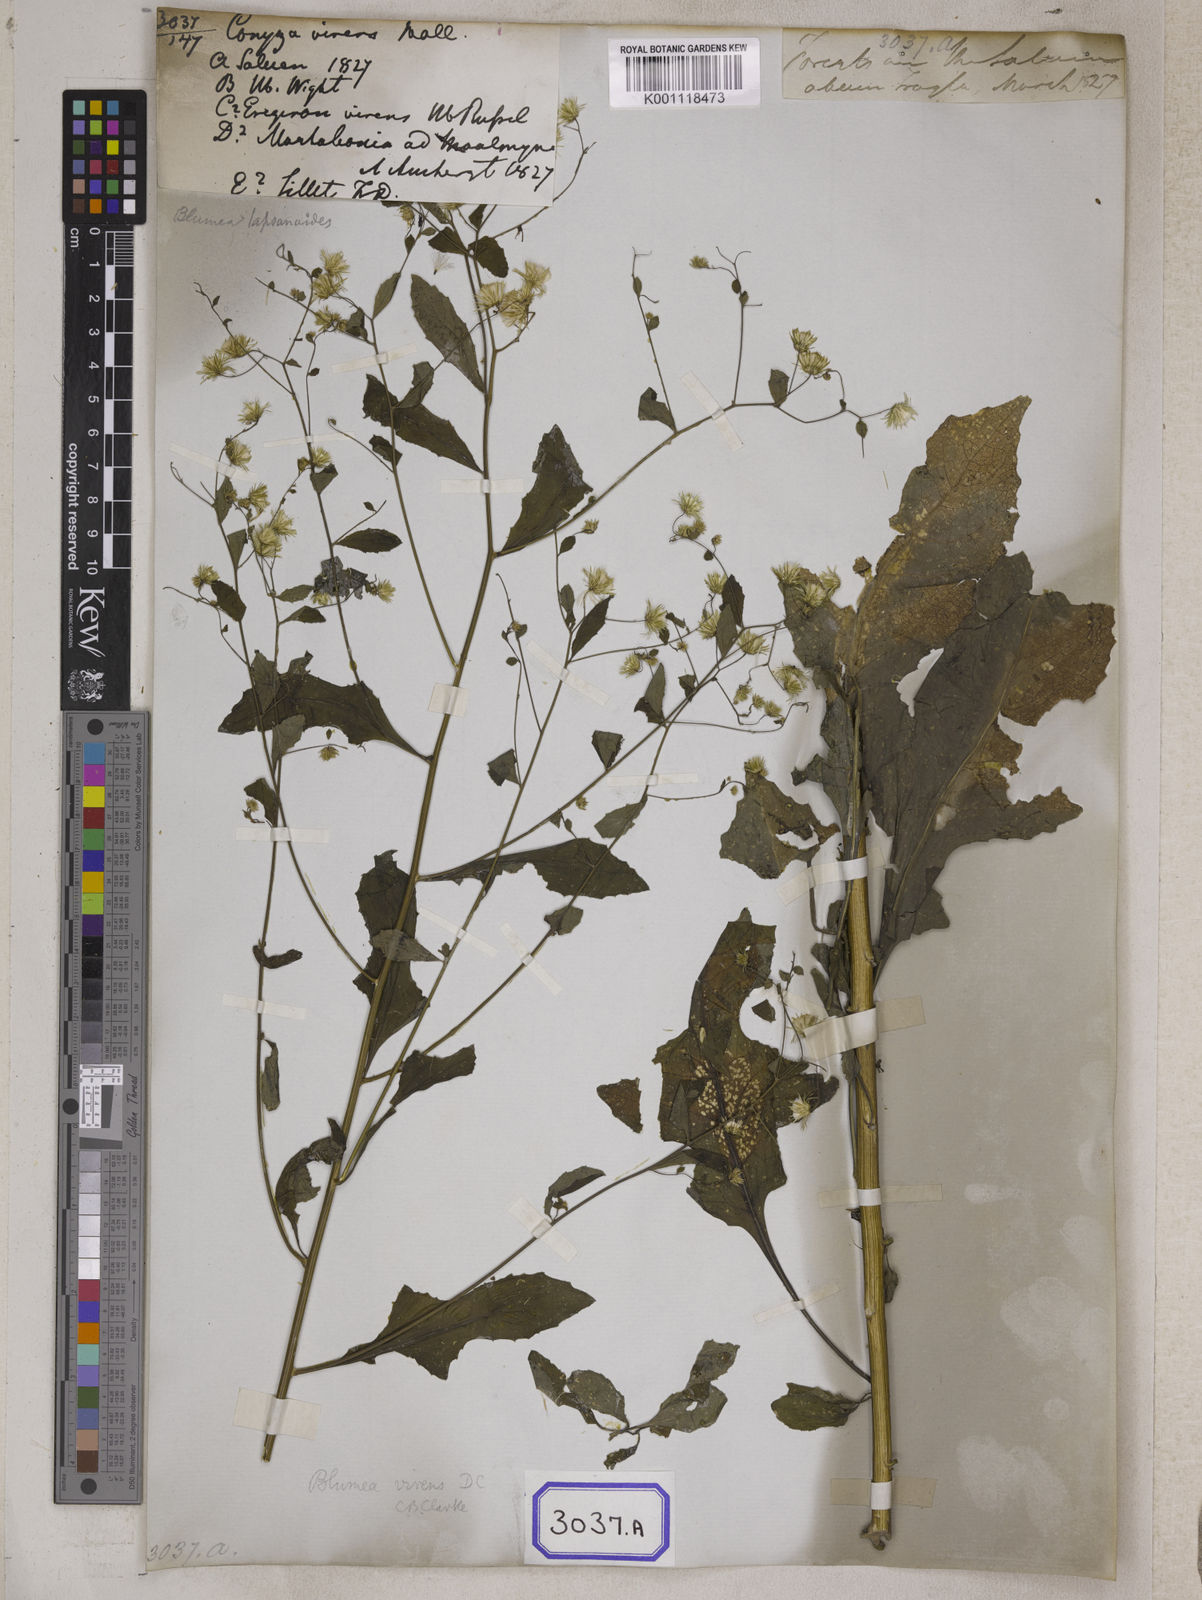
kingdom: Plantae
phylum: Tracheophyta
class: Magnoliopsida
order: Asterales
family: Asteraceae
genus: Blumea
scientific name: Blumea virens
